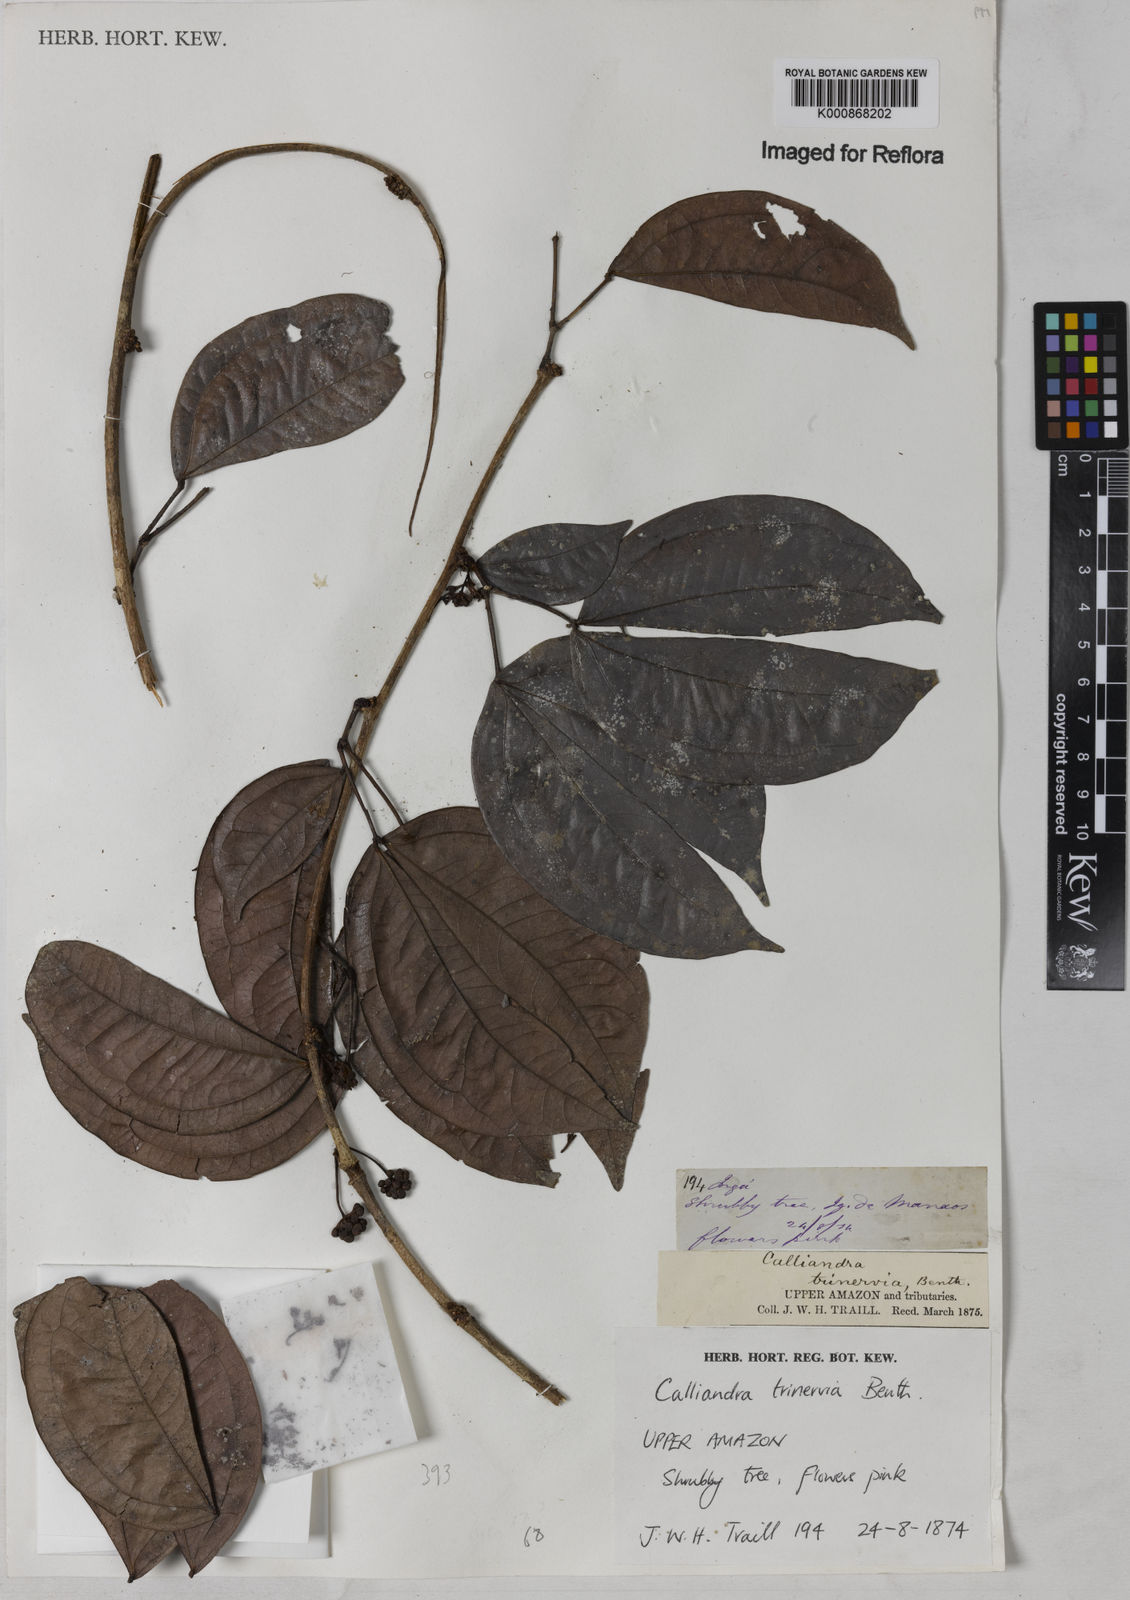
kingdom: Plantae
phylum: Tracheophyta
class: Magnoliopsida
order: Fabales
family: Fabaceae
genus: Calliandra
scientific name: Calliandra trinervia
